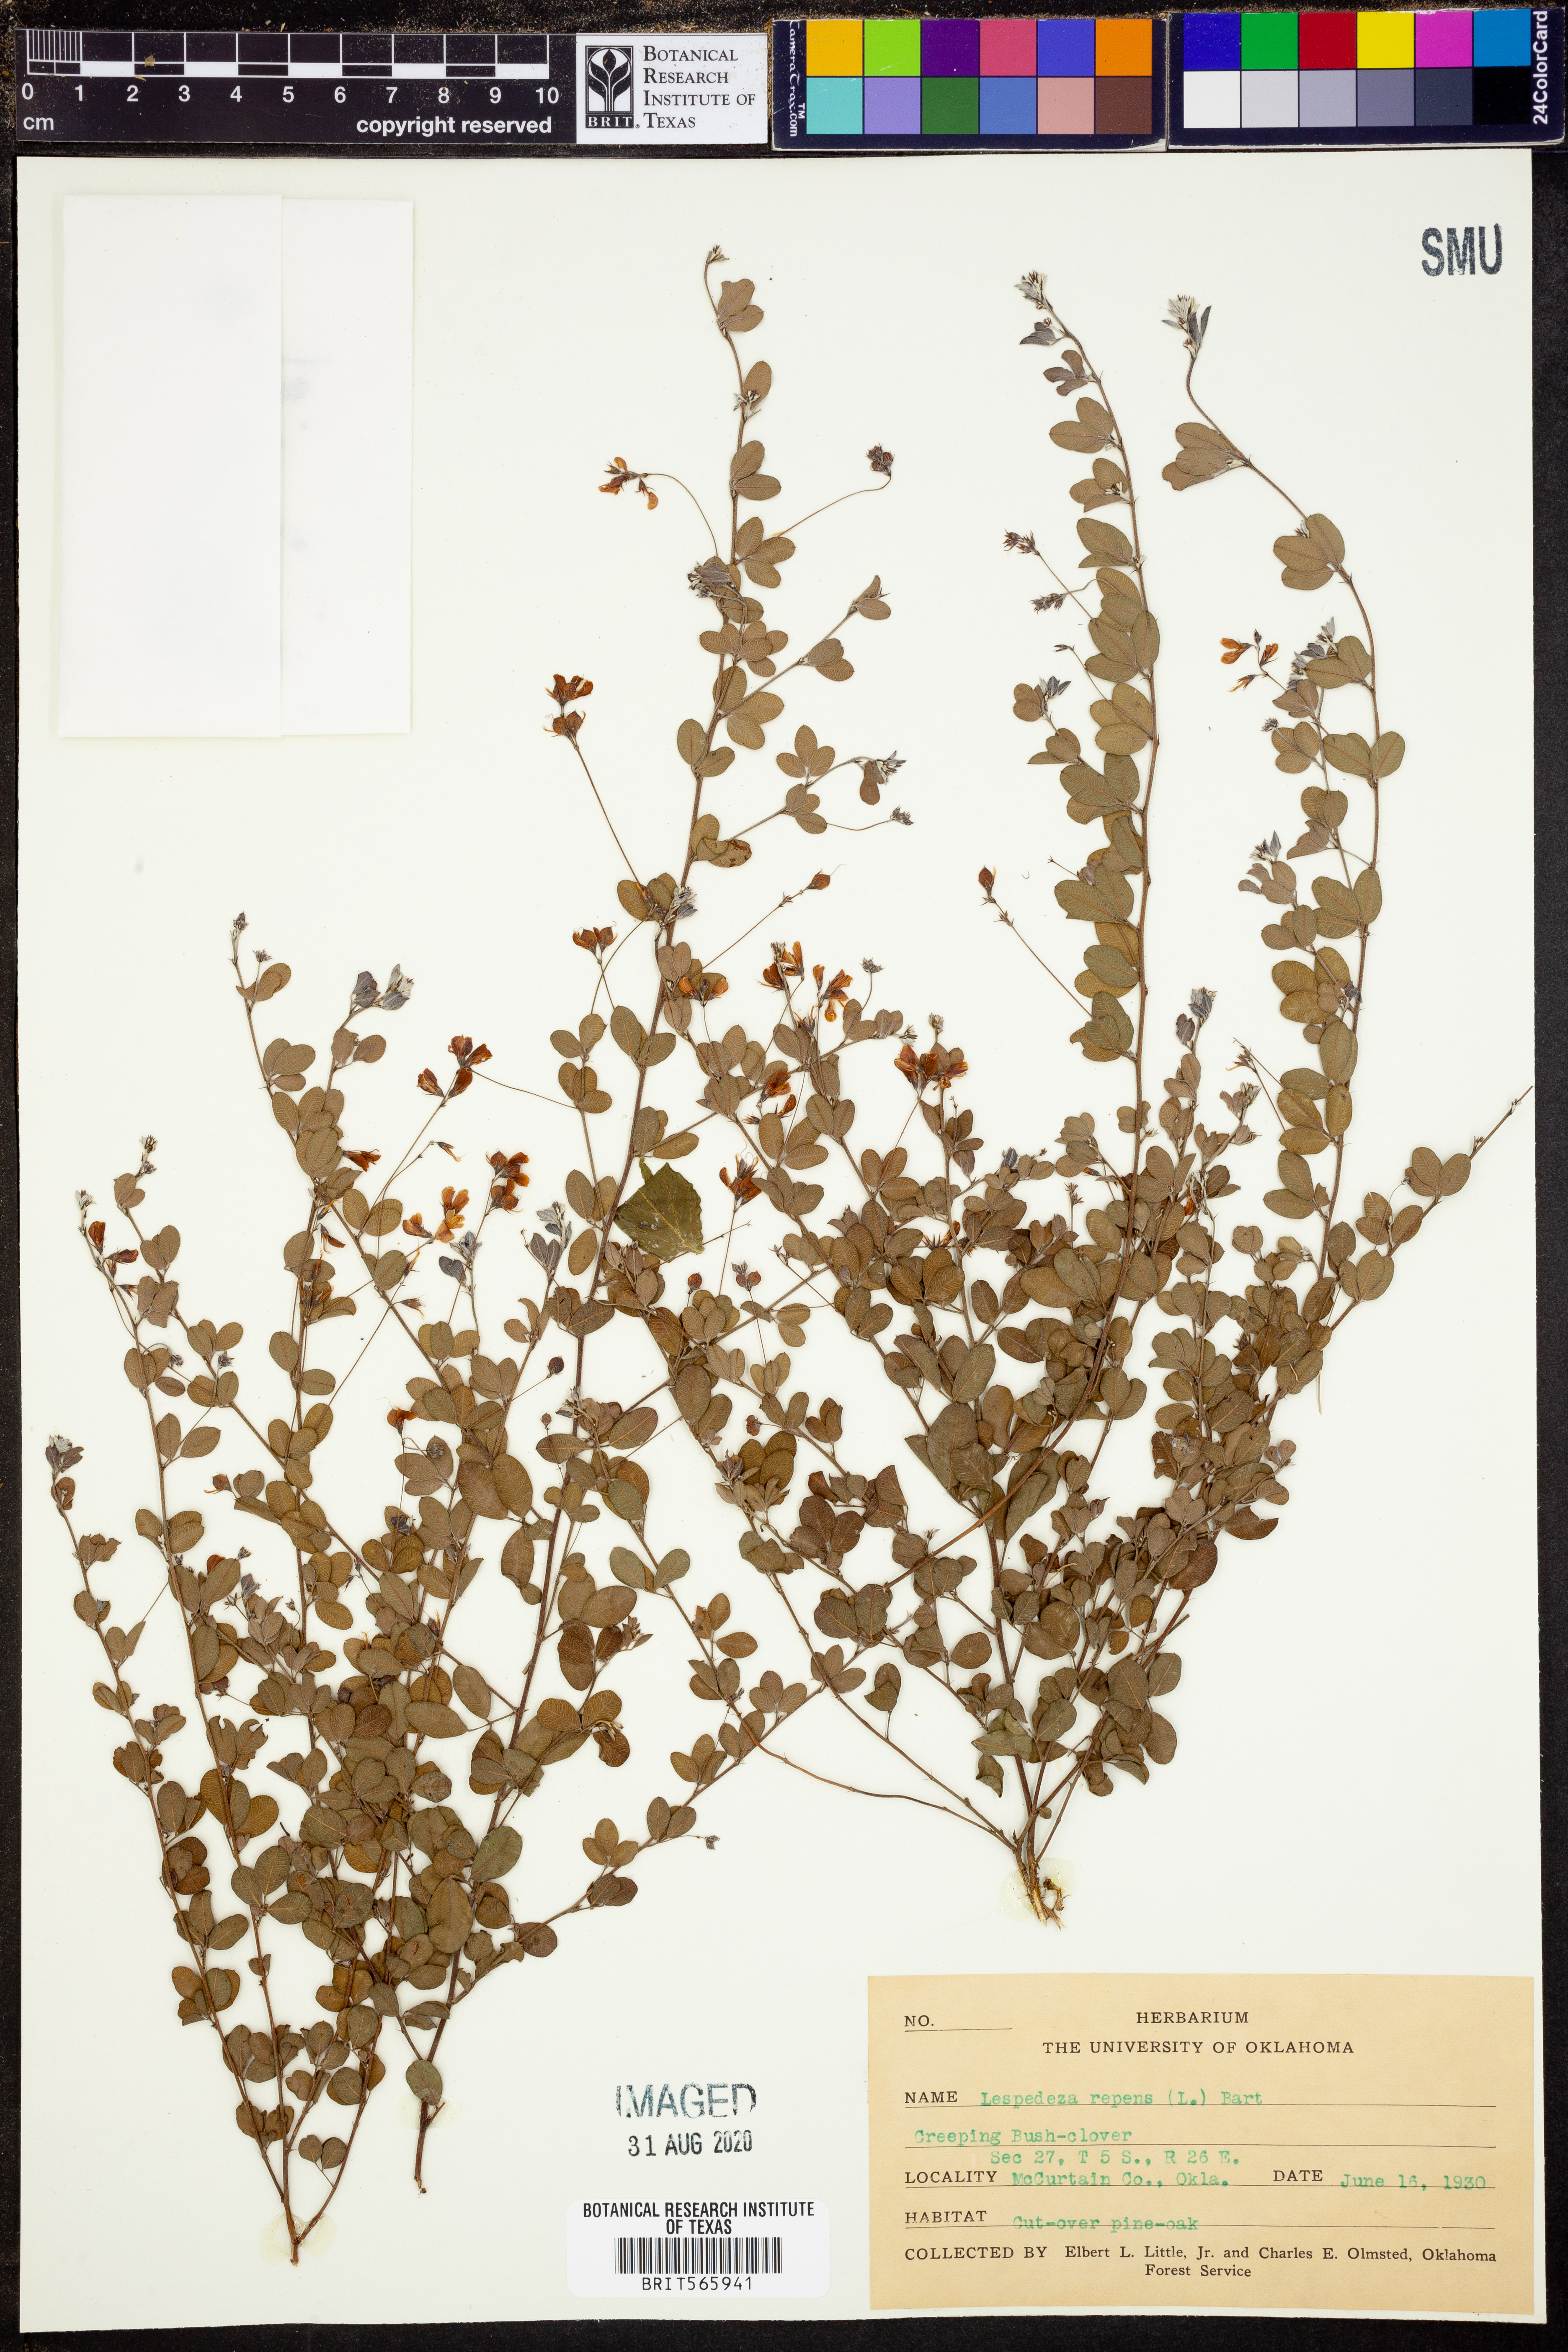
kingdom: Plantae
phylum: Tracheophyta
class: Magnoliopsida
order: Fabales
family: Fabaceae
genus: Lespedeza
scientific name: Lespedeza repens
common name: Creeping bush-clover
